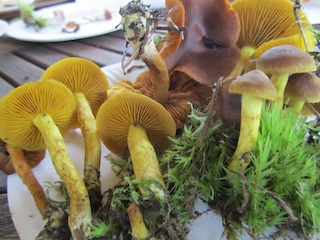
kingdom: Fungi
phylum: Basidiomycota
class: Agaricomycetes
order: Agaricales
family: Cortinariaceae
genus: Cortinarius
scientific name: Cortinarius
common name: gulbladet slørhat
